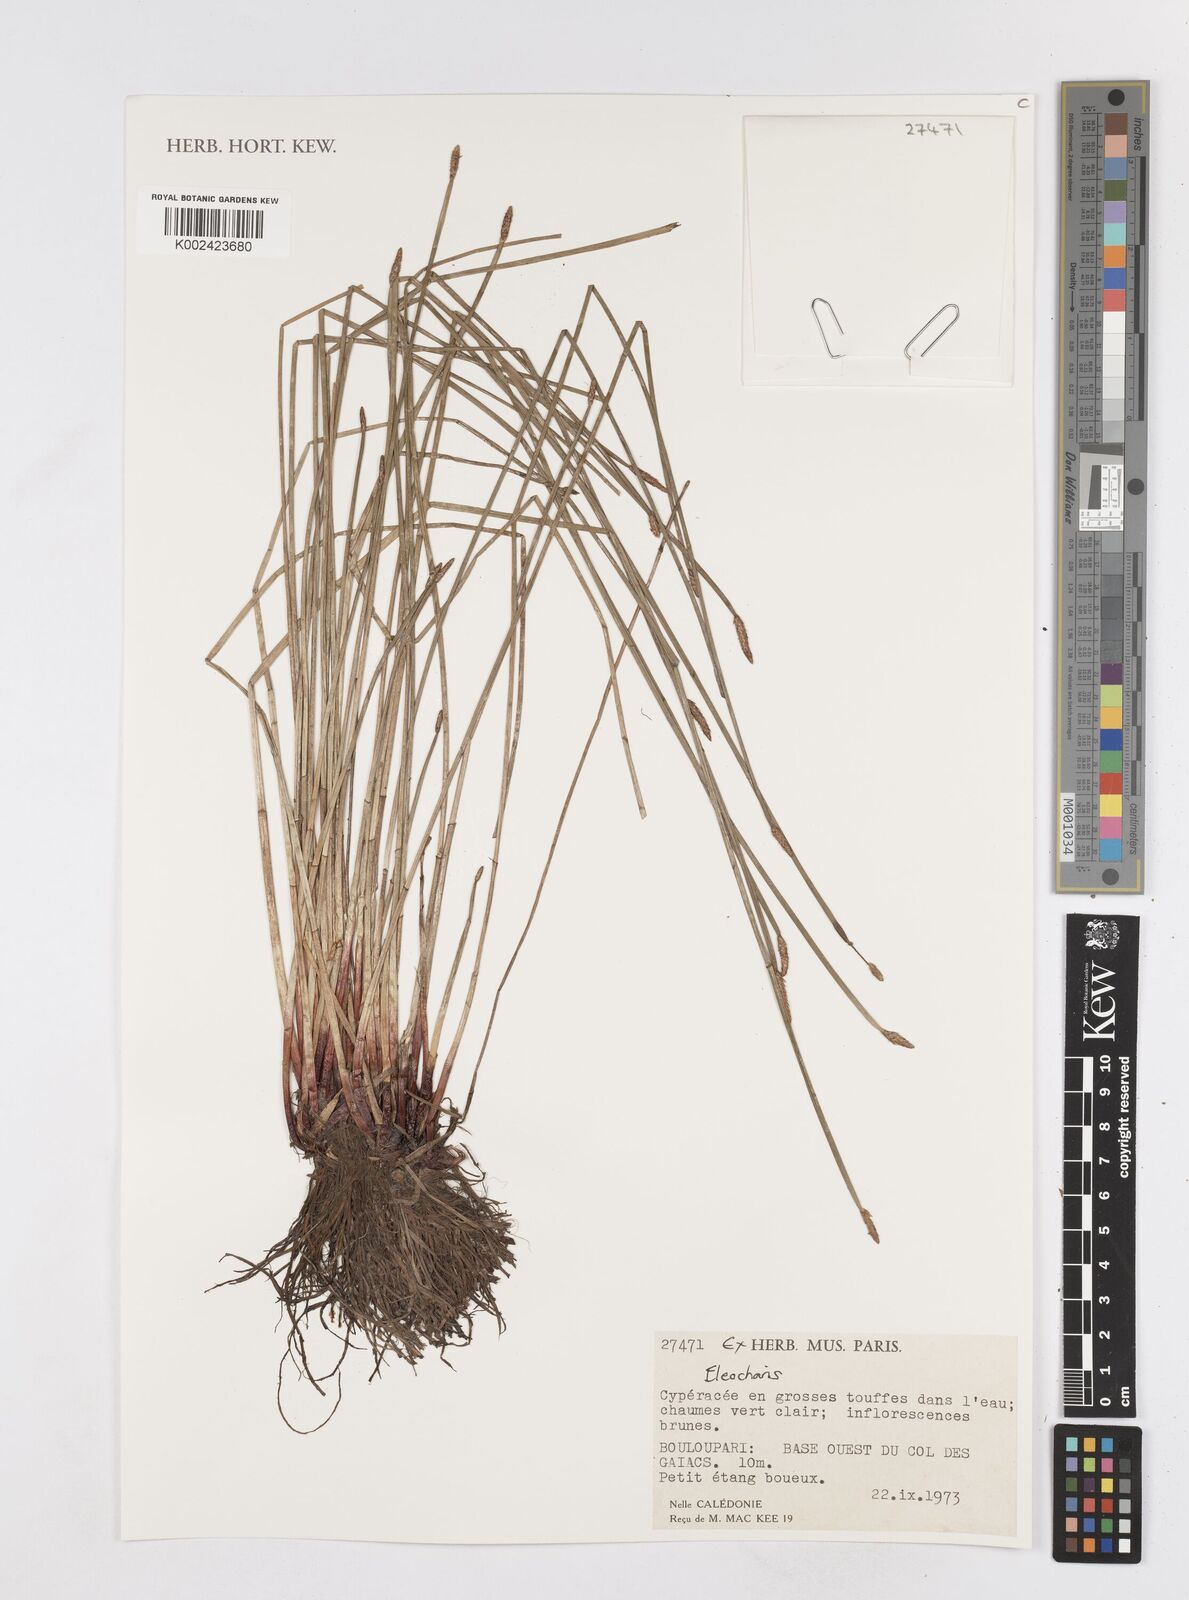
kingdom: Plantae
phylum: Tracheophyta
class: Liliopsida
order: Poales
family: Cyperaceae
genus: Eleocharis
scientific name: Eleocharis
